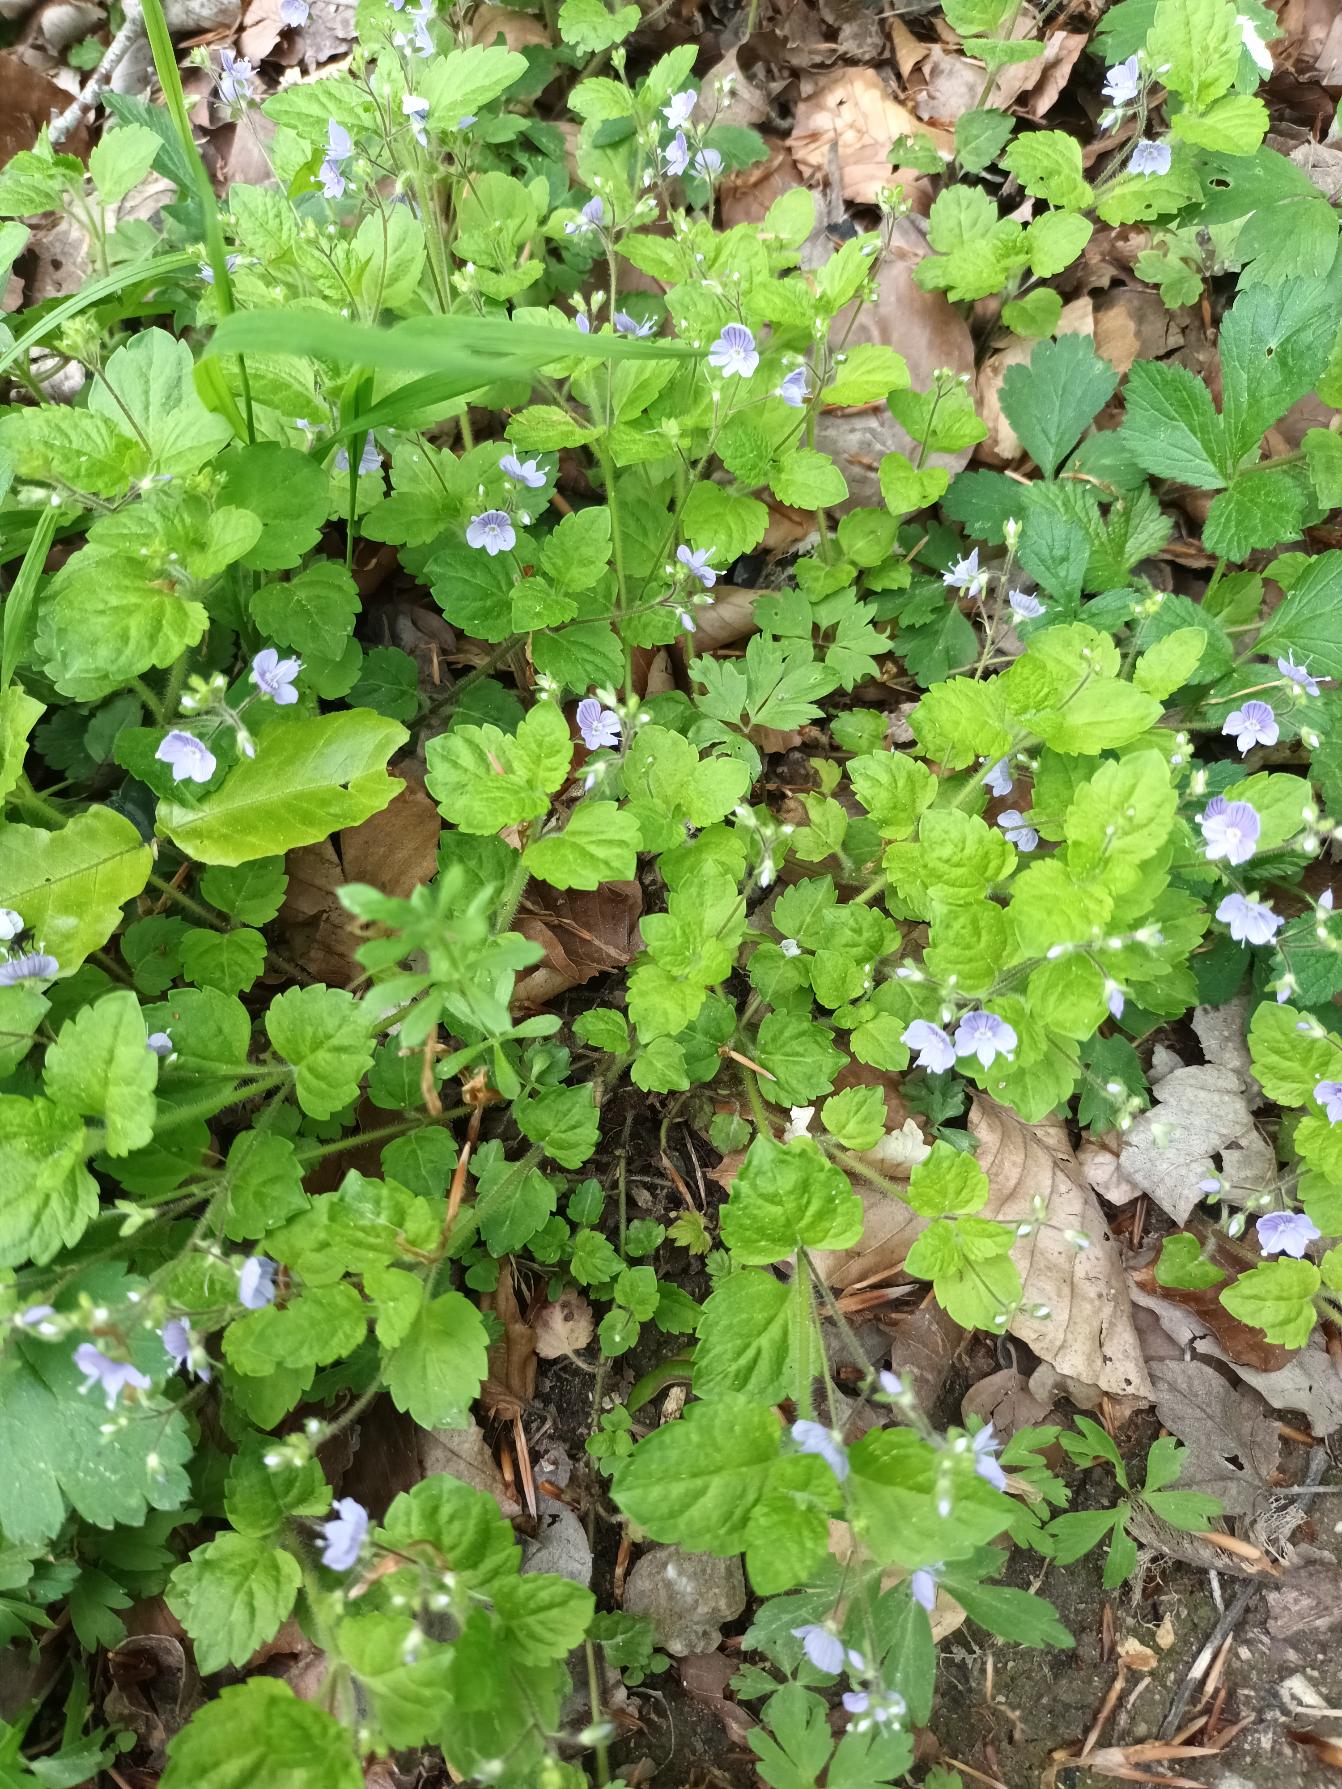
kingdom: Plantae
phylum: Tracheophyta
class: Magnoliopsida
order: Lamiales
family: Plantaginaceae
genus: Veronica
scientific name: Veronica montana
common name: Bjerg-ærenpris
